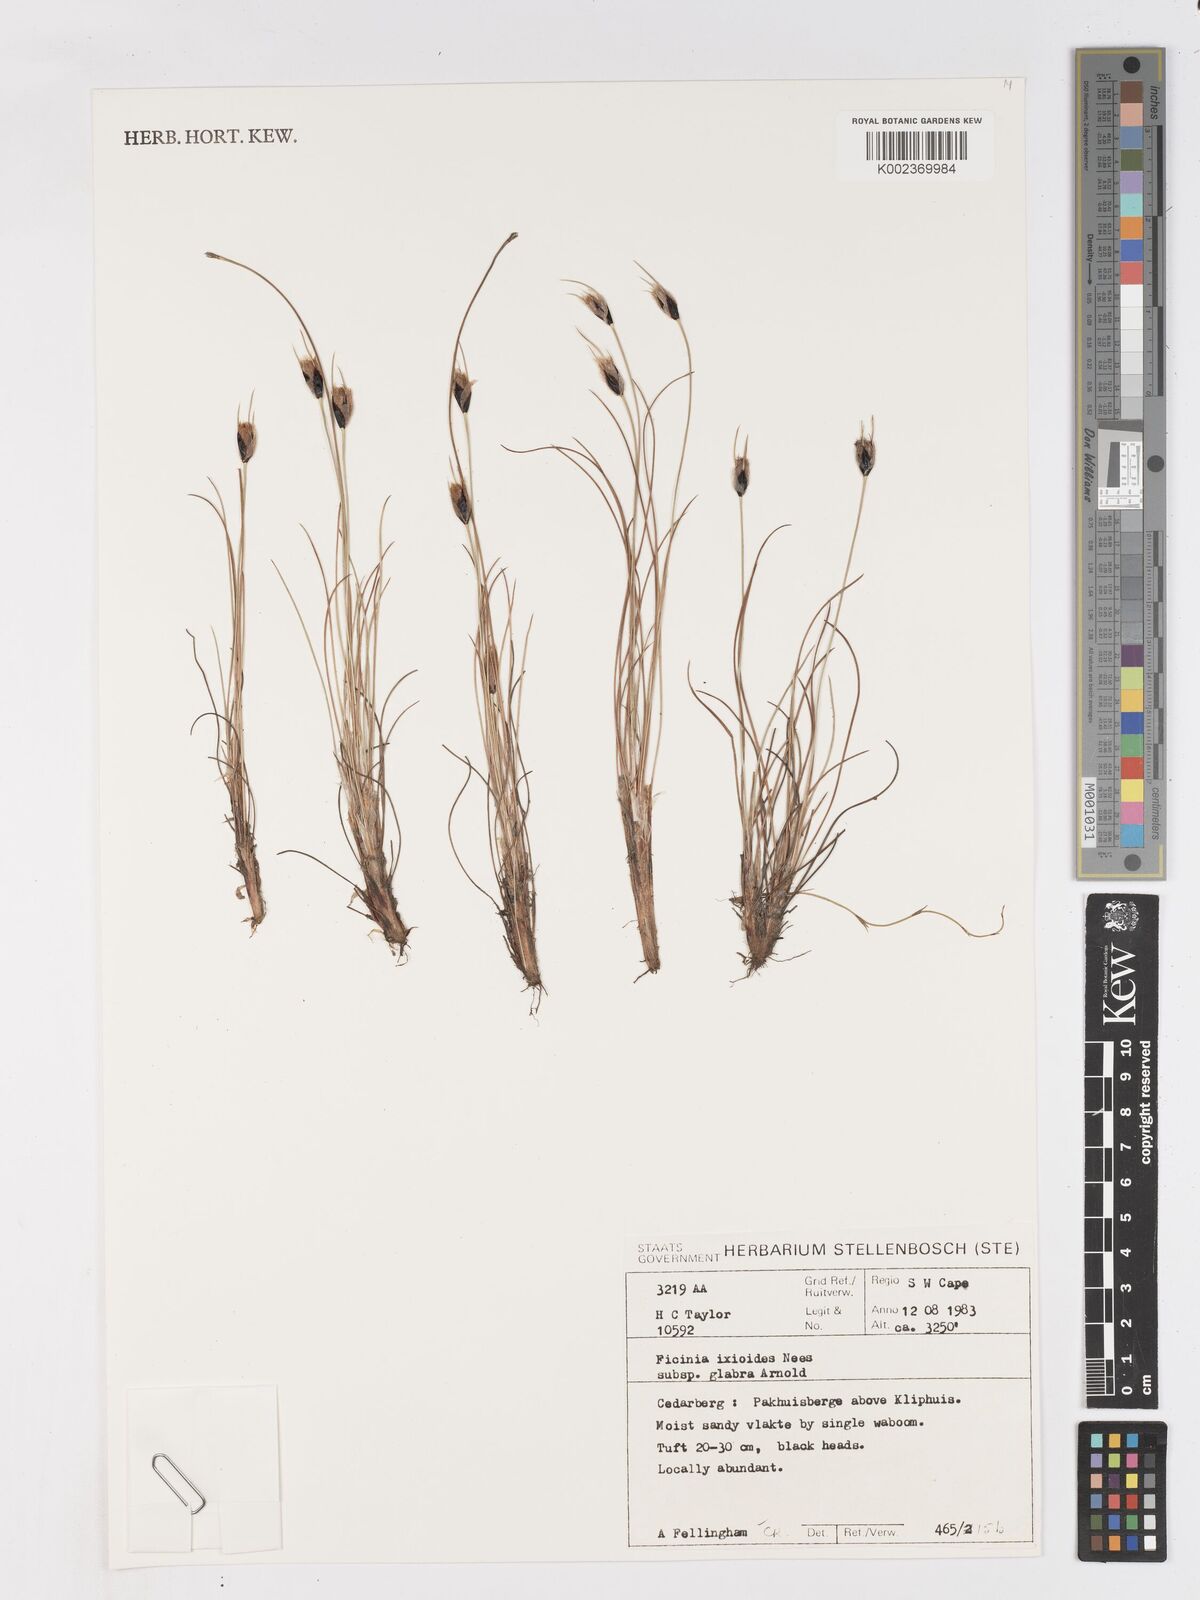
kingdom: Plantae
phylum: Tracheophyta
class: Liliopsida
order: Poales
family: Cyperaceae
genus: Ficinia
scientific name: Ficinia ixioides
